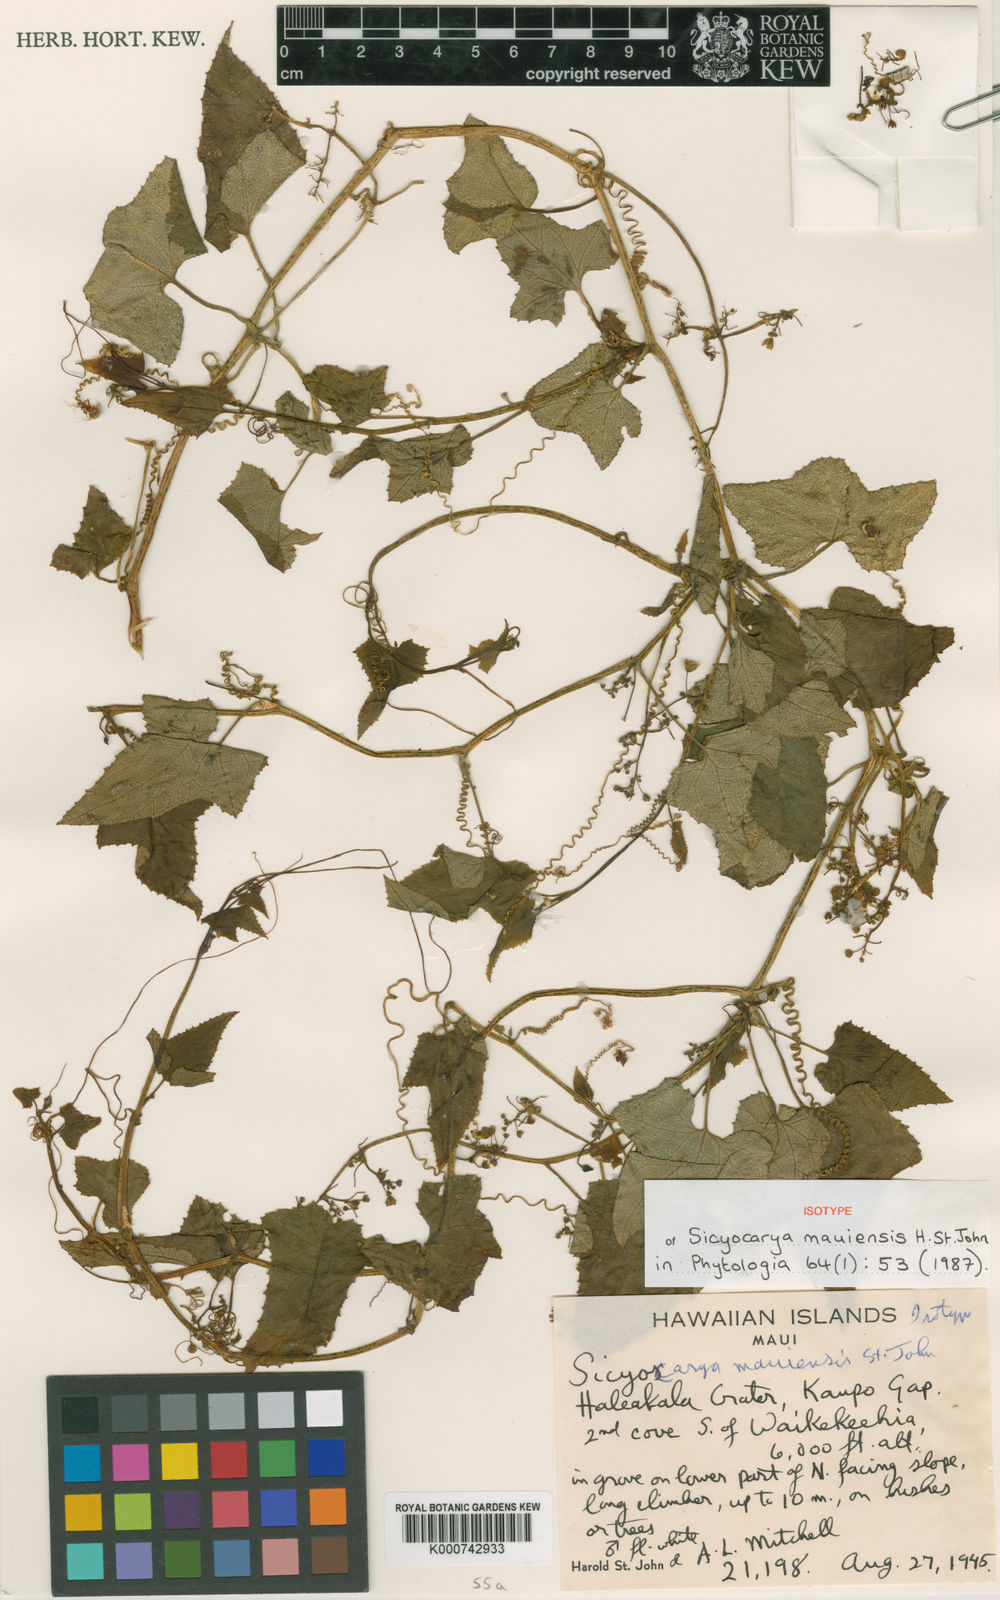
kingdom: Plantae
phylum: Tracheophyta
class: Magnoliopsida
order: Cucurbitales
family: Cucurbitaceae
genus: Sicyos
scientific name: Sicyos cucumerinus
